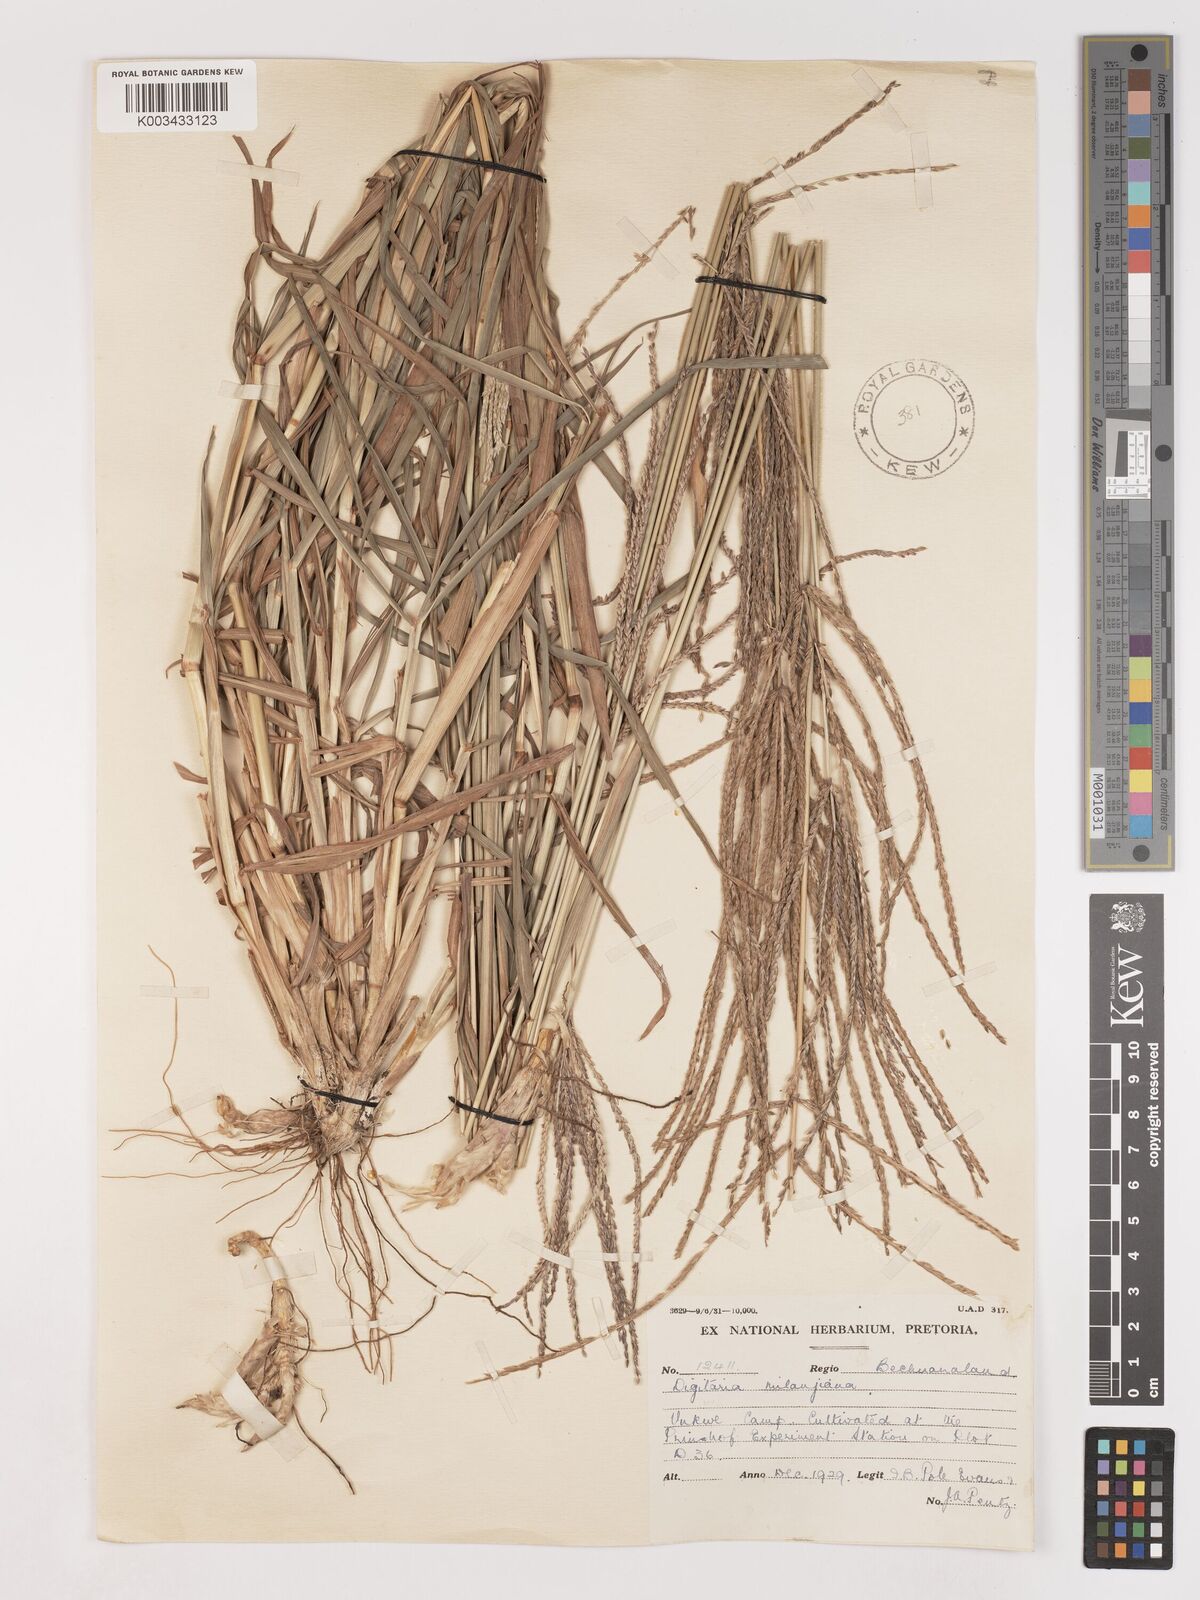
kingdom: Plantae
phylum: Tracheophyta
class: Liliopsida
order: Poales
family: Poaceae
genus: Digitaria
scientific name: Digitaria milanjiana
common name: Madagascar crabgrass
